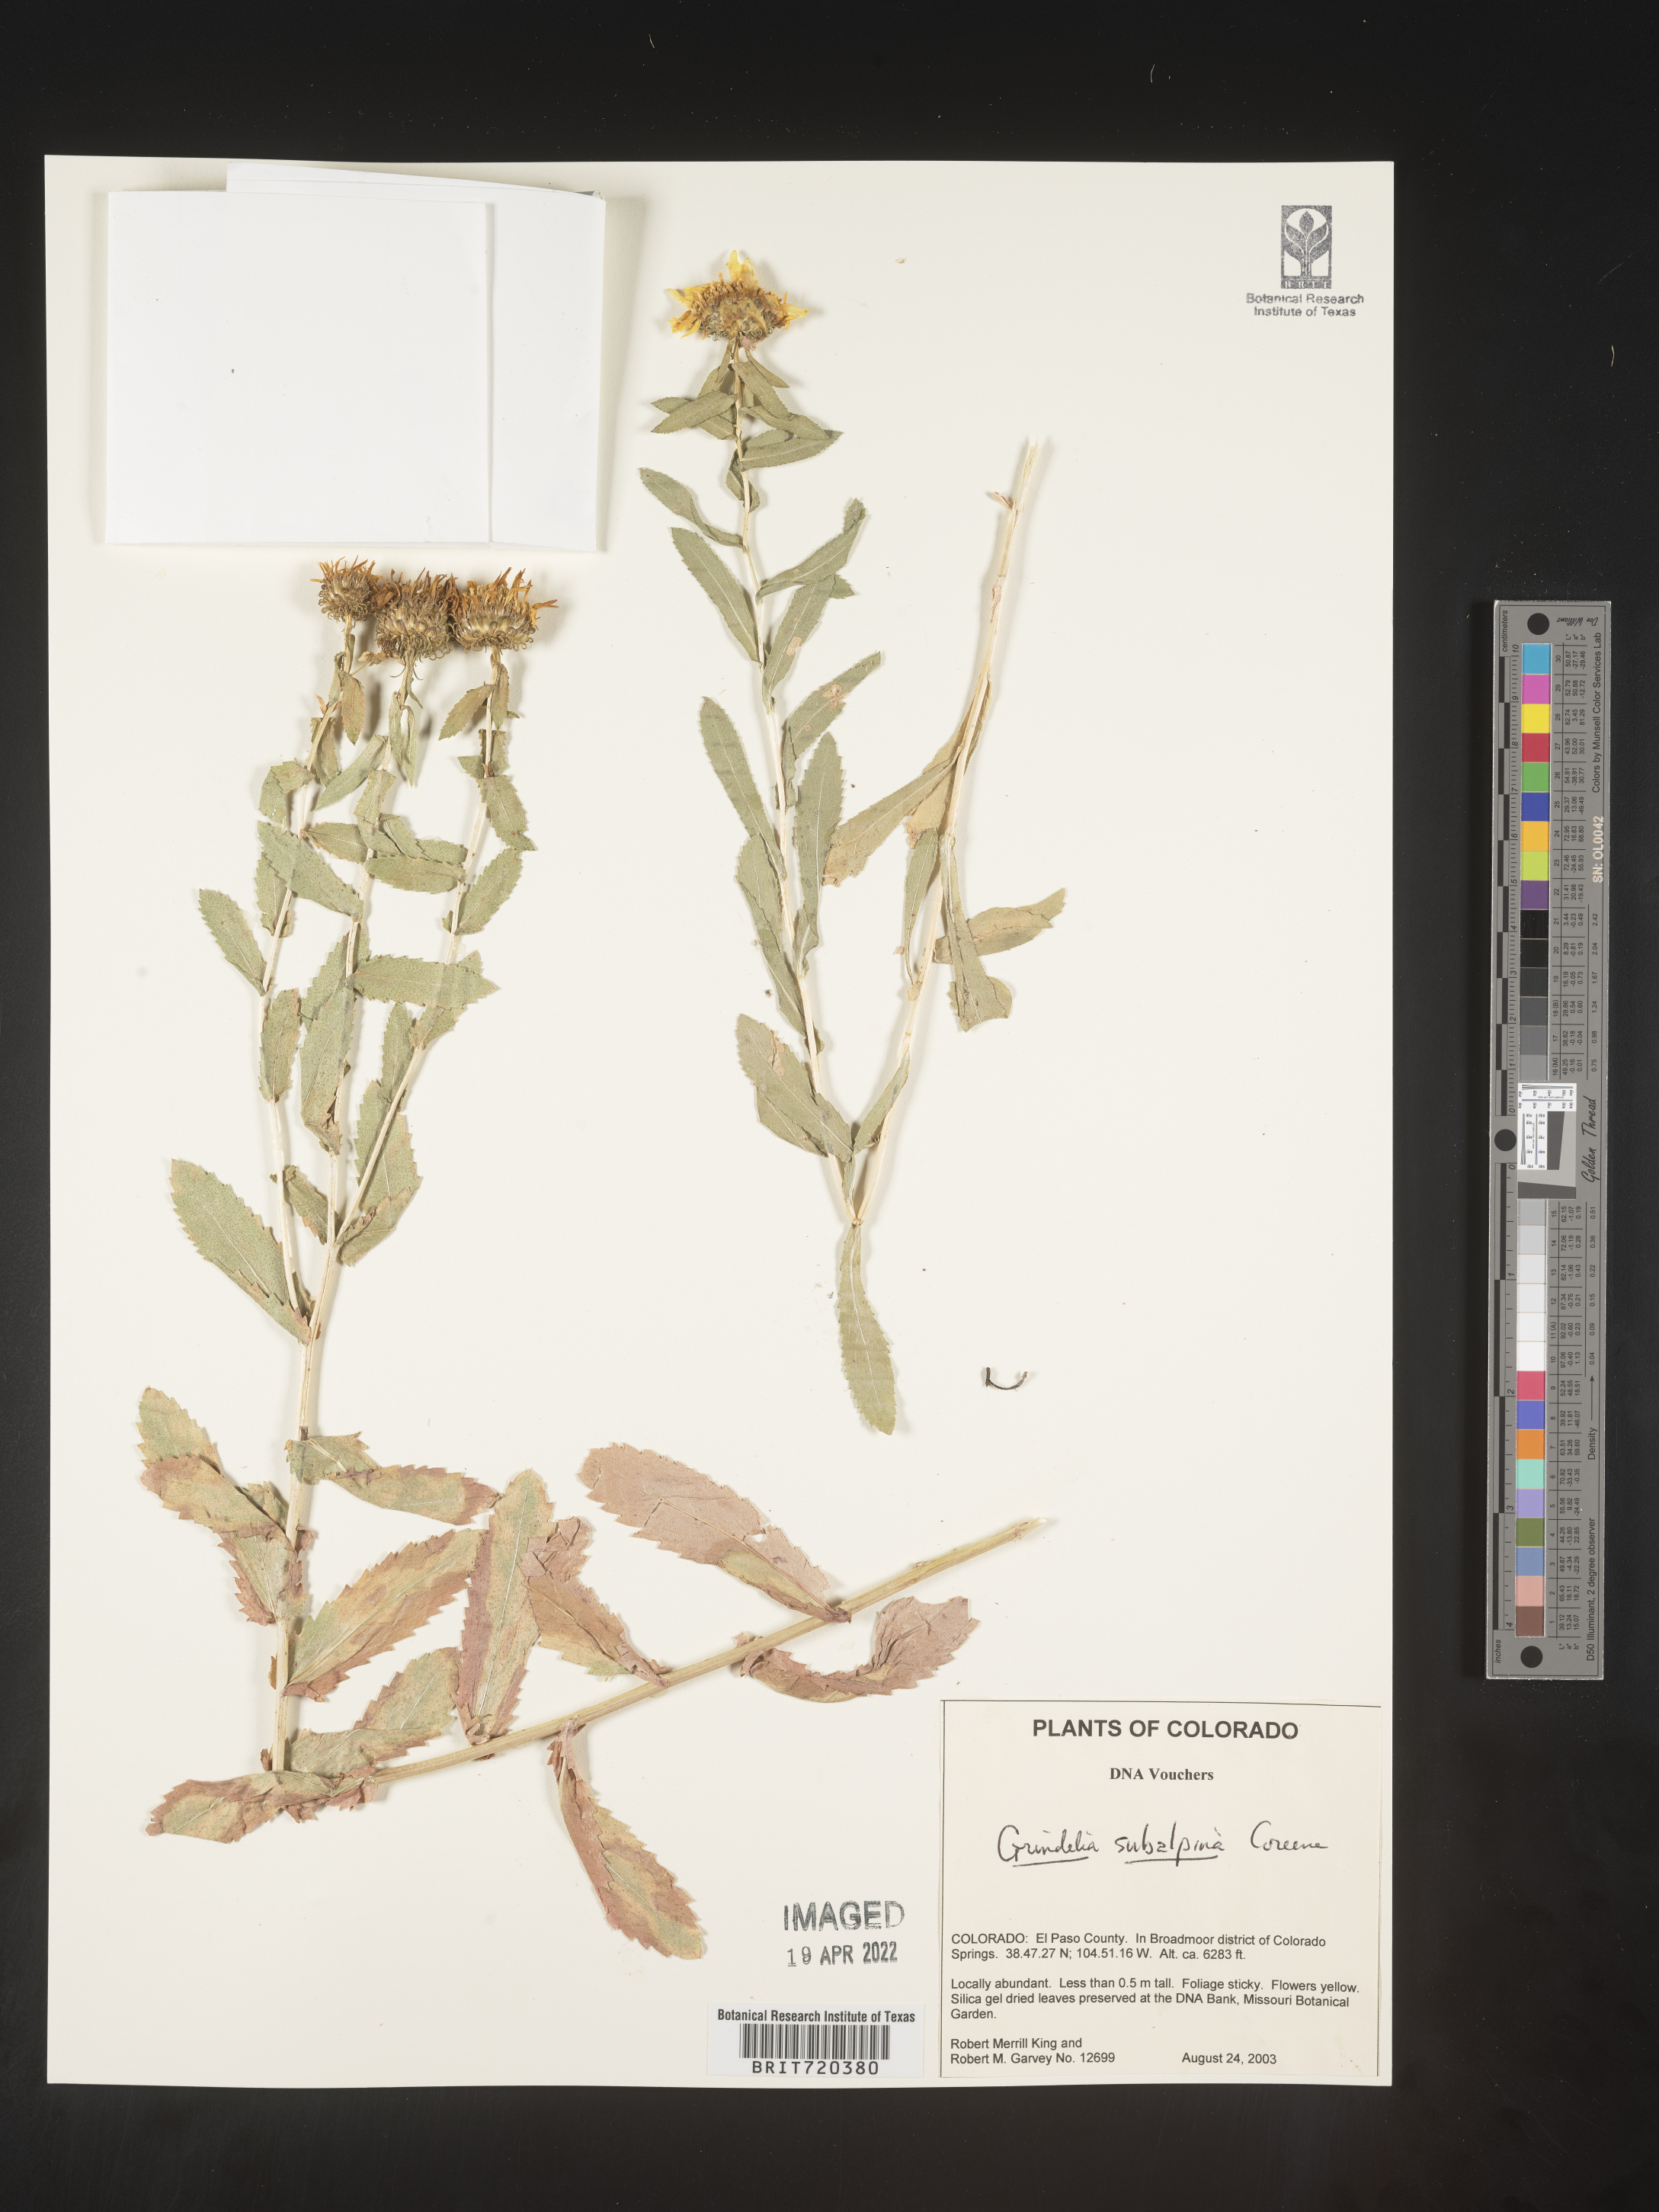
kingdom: Plantae
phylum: Tracheophyta
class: Magnoliopsida
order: Asterales
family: Asteraceae
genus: Grindelia
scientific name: Grindelia subalpina
